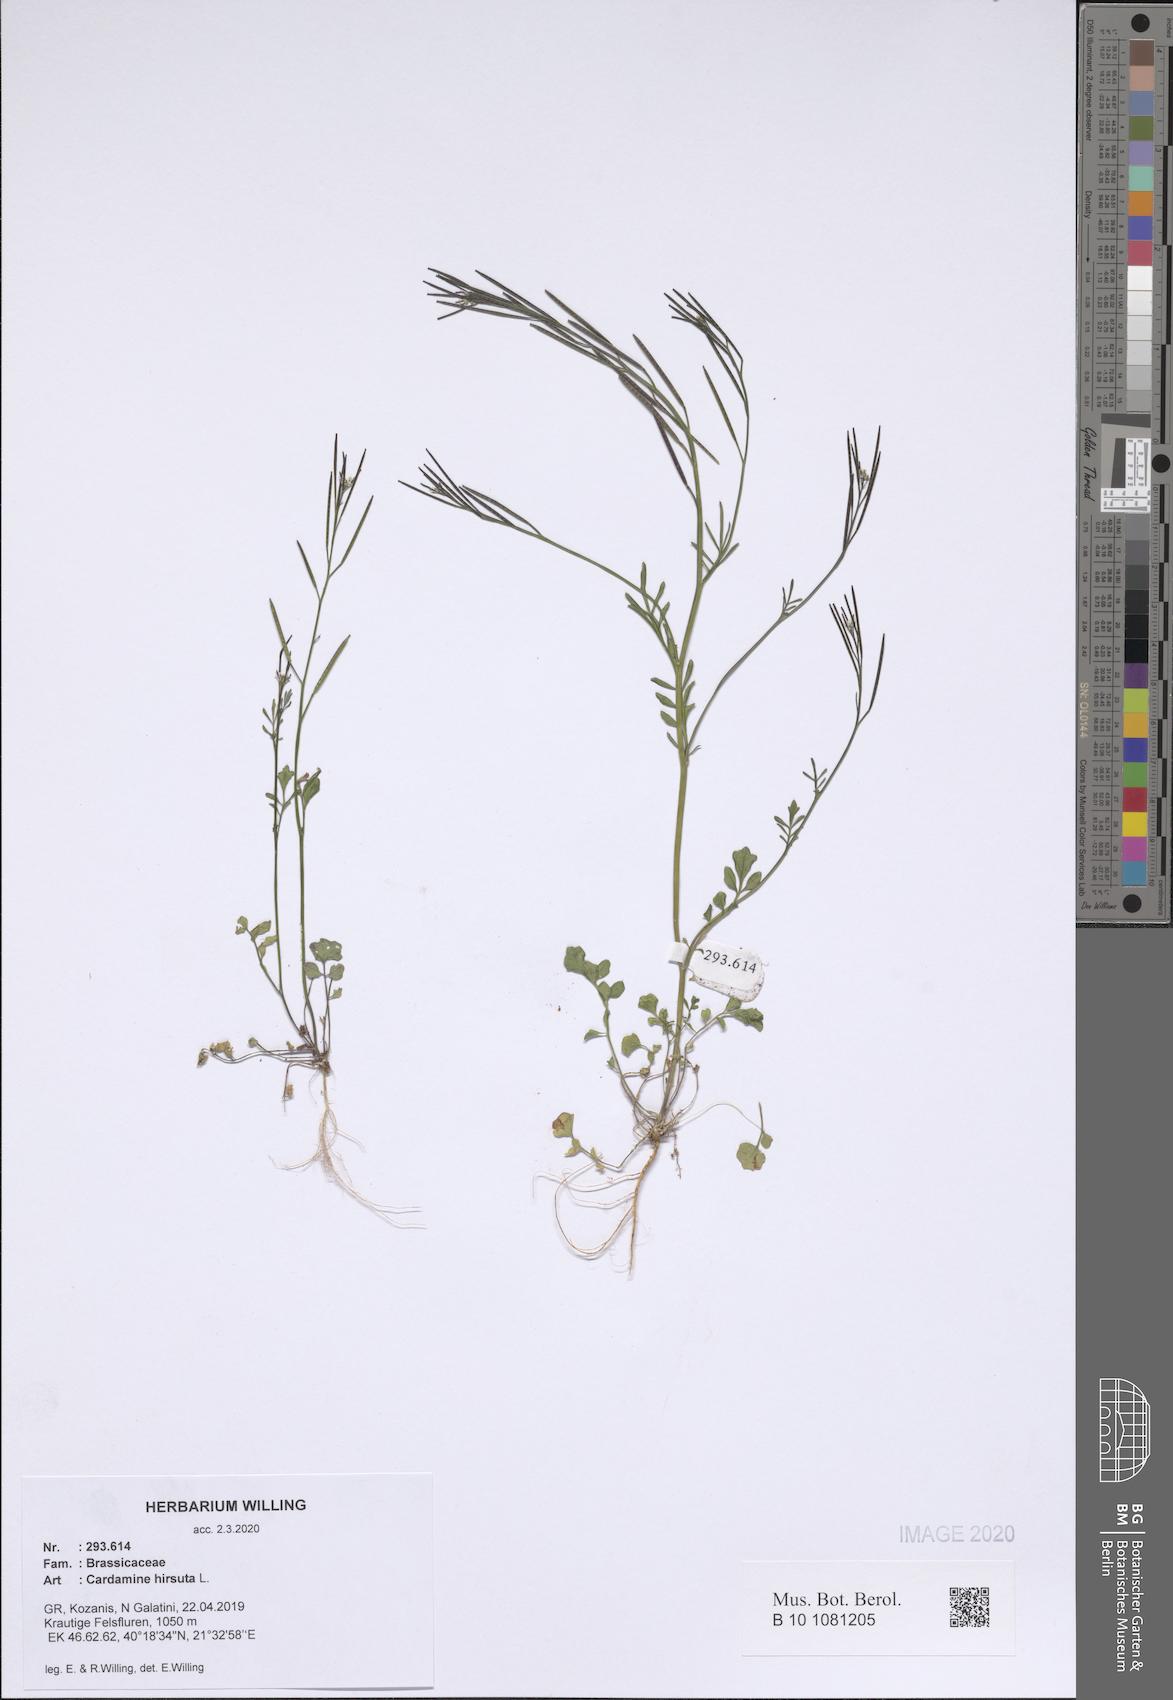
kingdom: Plantae
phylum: Tracheophyta
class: Magnoliopsida
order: Brassicales
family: Brassicaceae
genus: Cardamine
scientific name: Cardamine hirsuta
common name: Hairy bittercress
